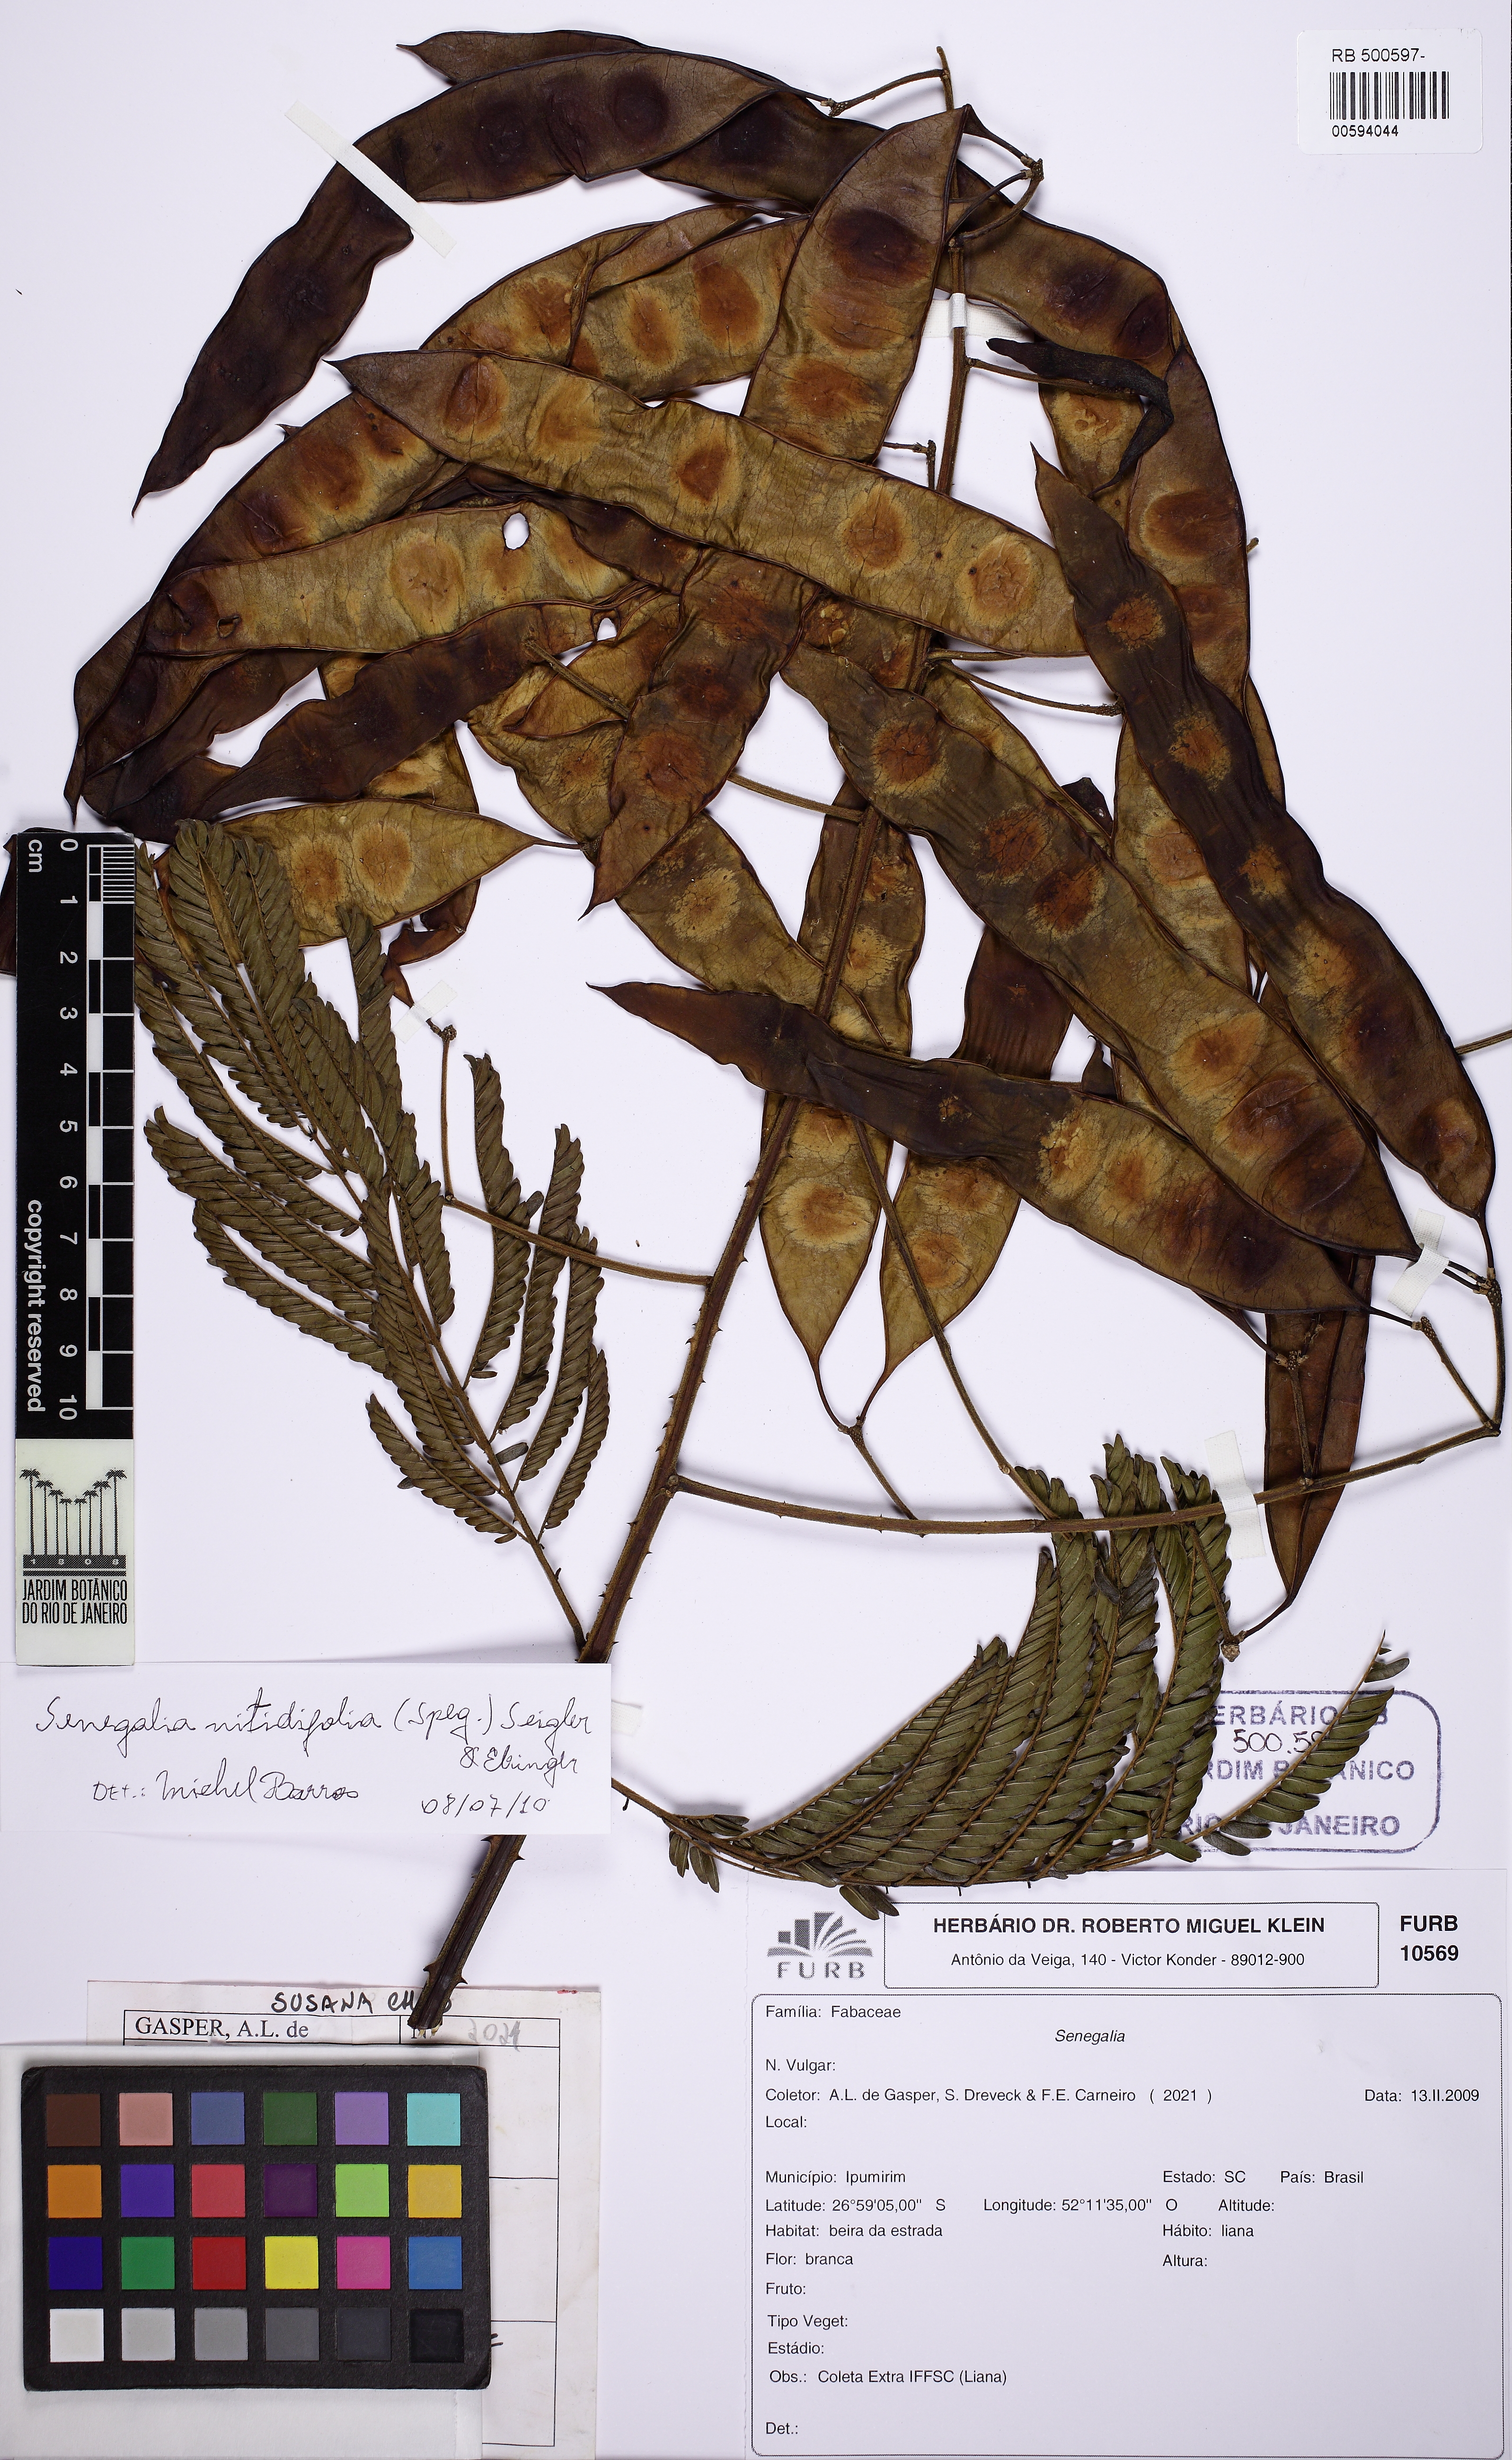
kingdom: Plantae
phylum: Tracheophyta
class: Magnoliopsida
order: Fabales
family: Fabaceae
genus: Senegalia
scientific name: Senegalia nitidifolia
